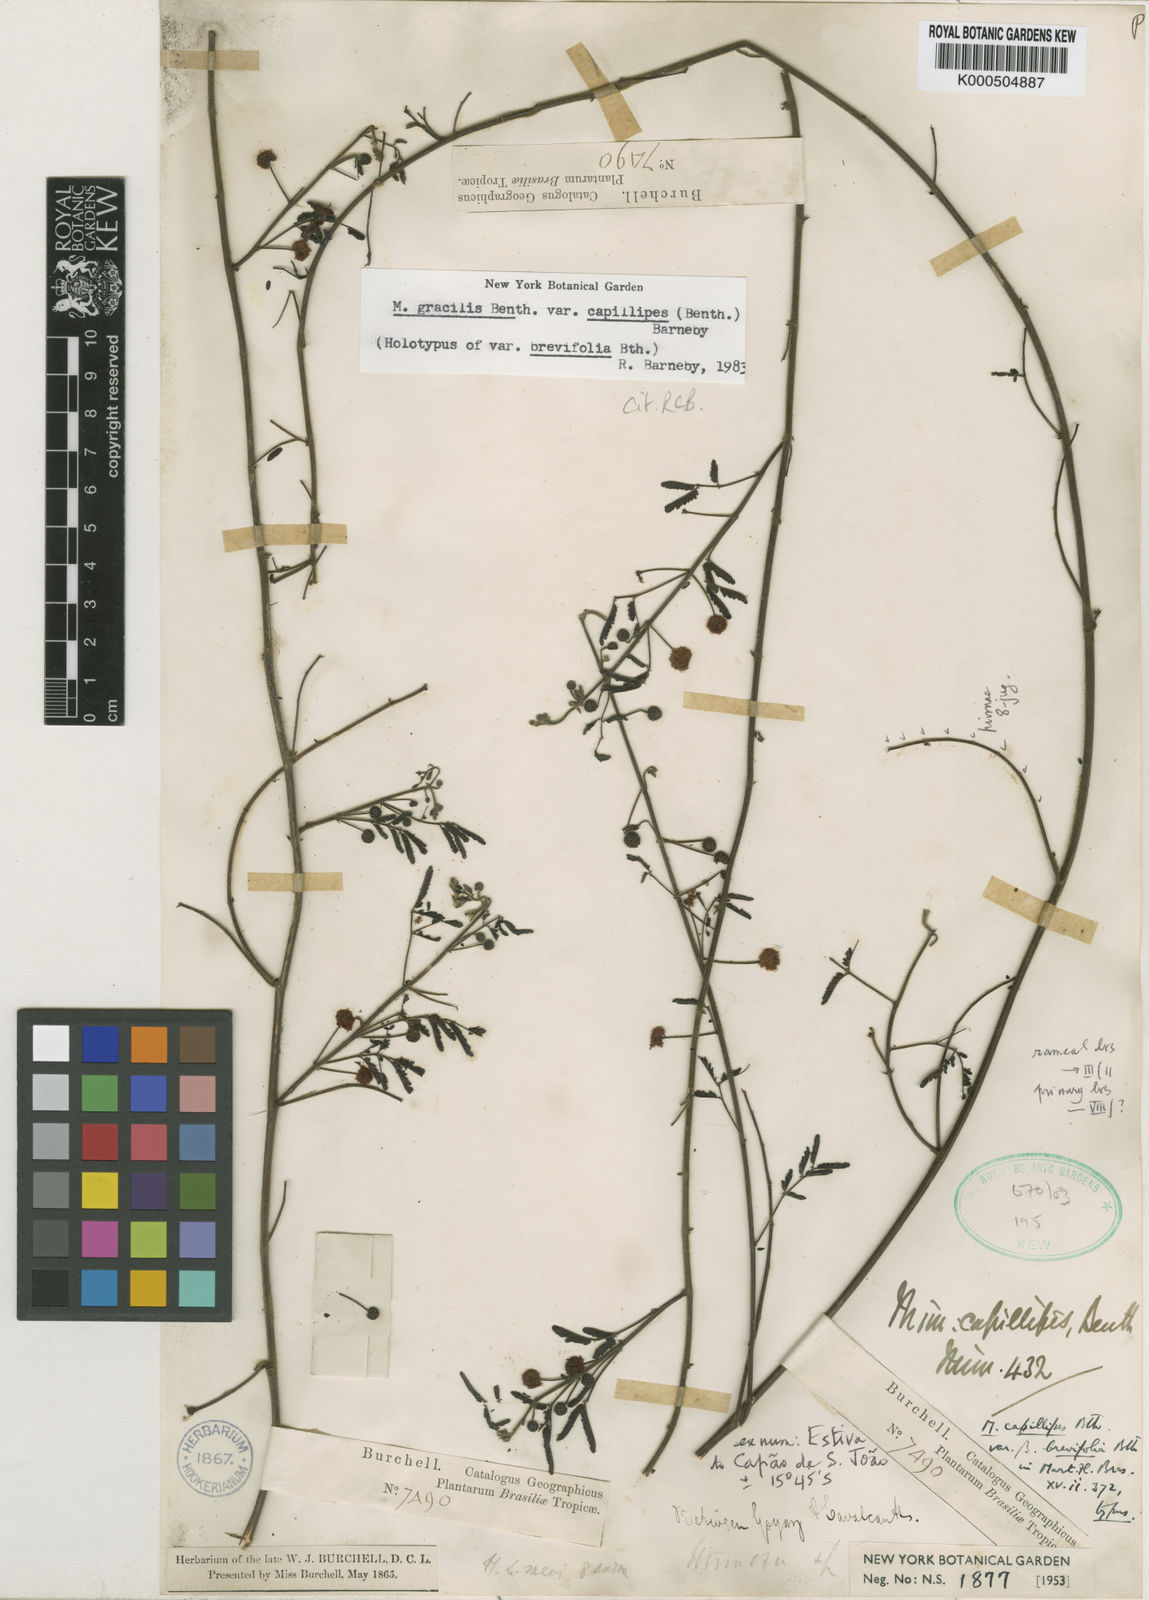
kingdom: Plantae
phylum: Tracheophyta
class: Magnoliopsida
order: Fabales
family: Fabaceae
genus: Mimosa
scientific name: Mimosa gracilis
